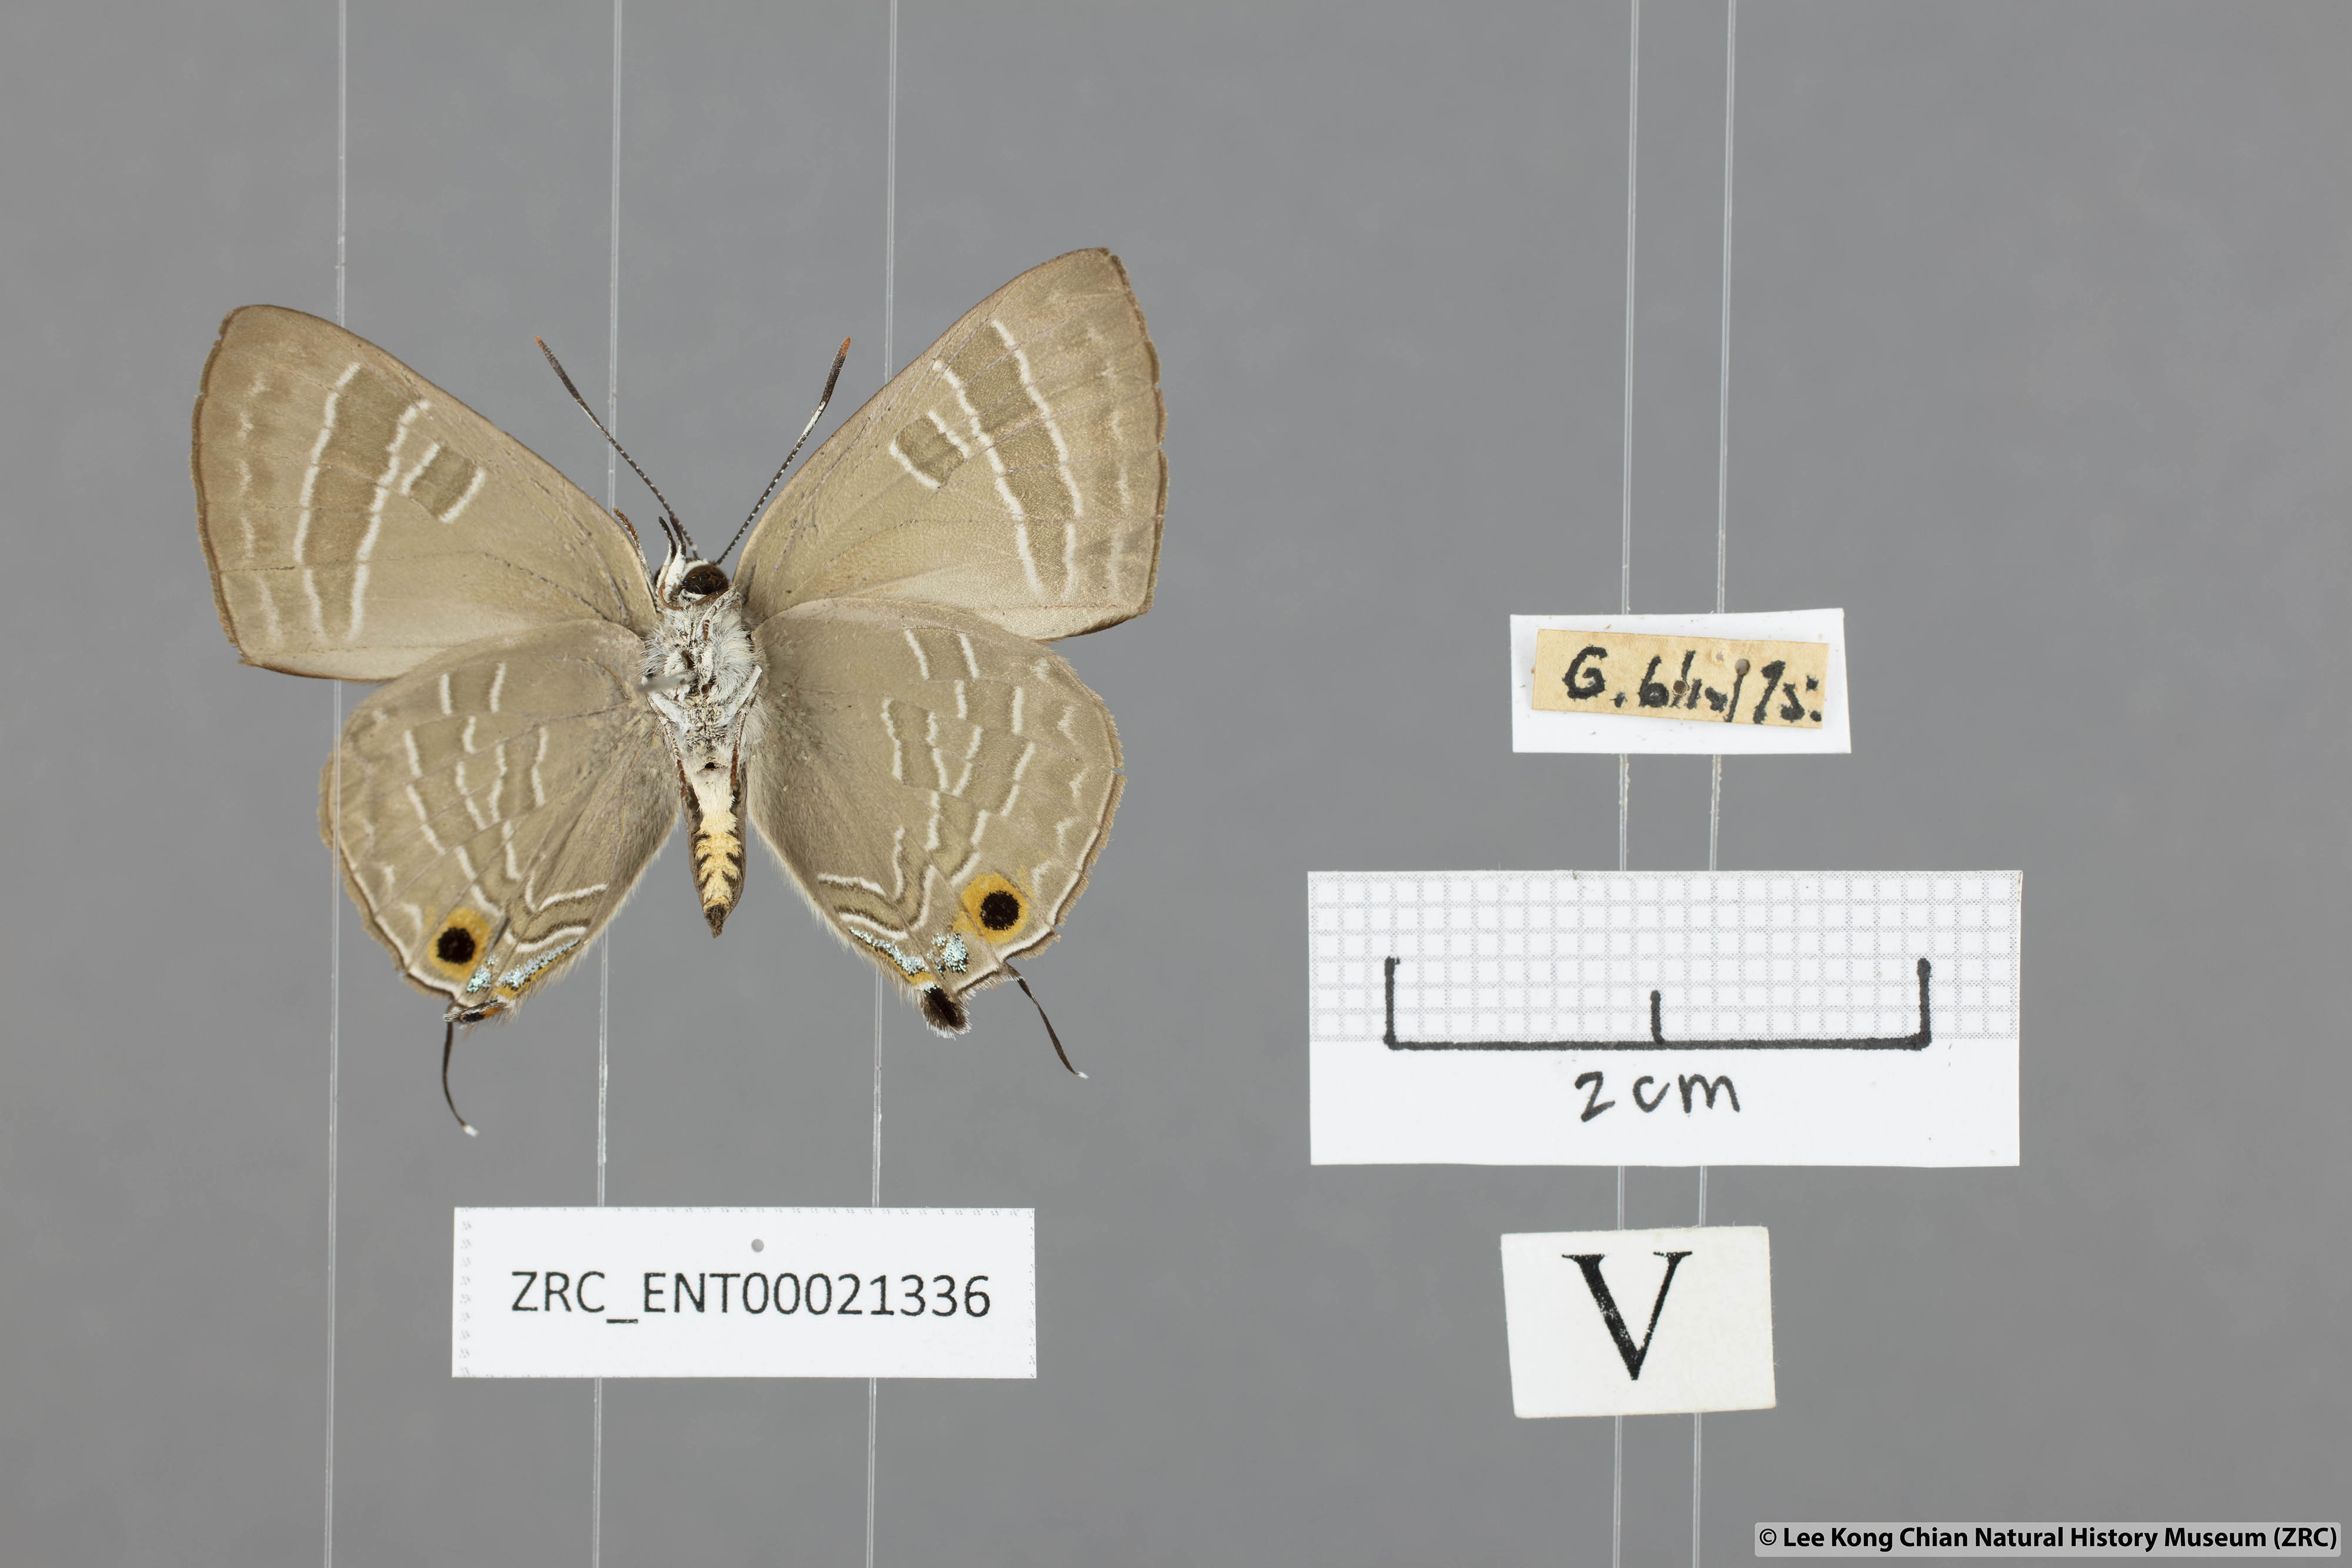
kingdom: Animalia
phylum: Arthropoda
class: Insecta
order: Lepidoptera
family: Lycaenidae
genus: Deudorix
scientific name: Deudorix epijarbas
